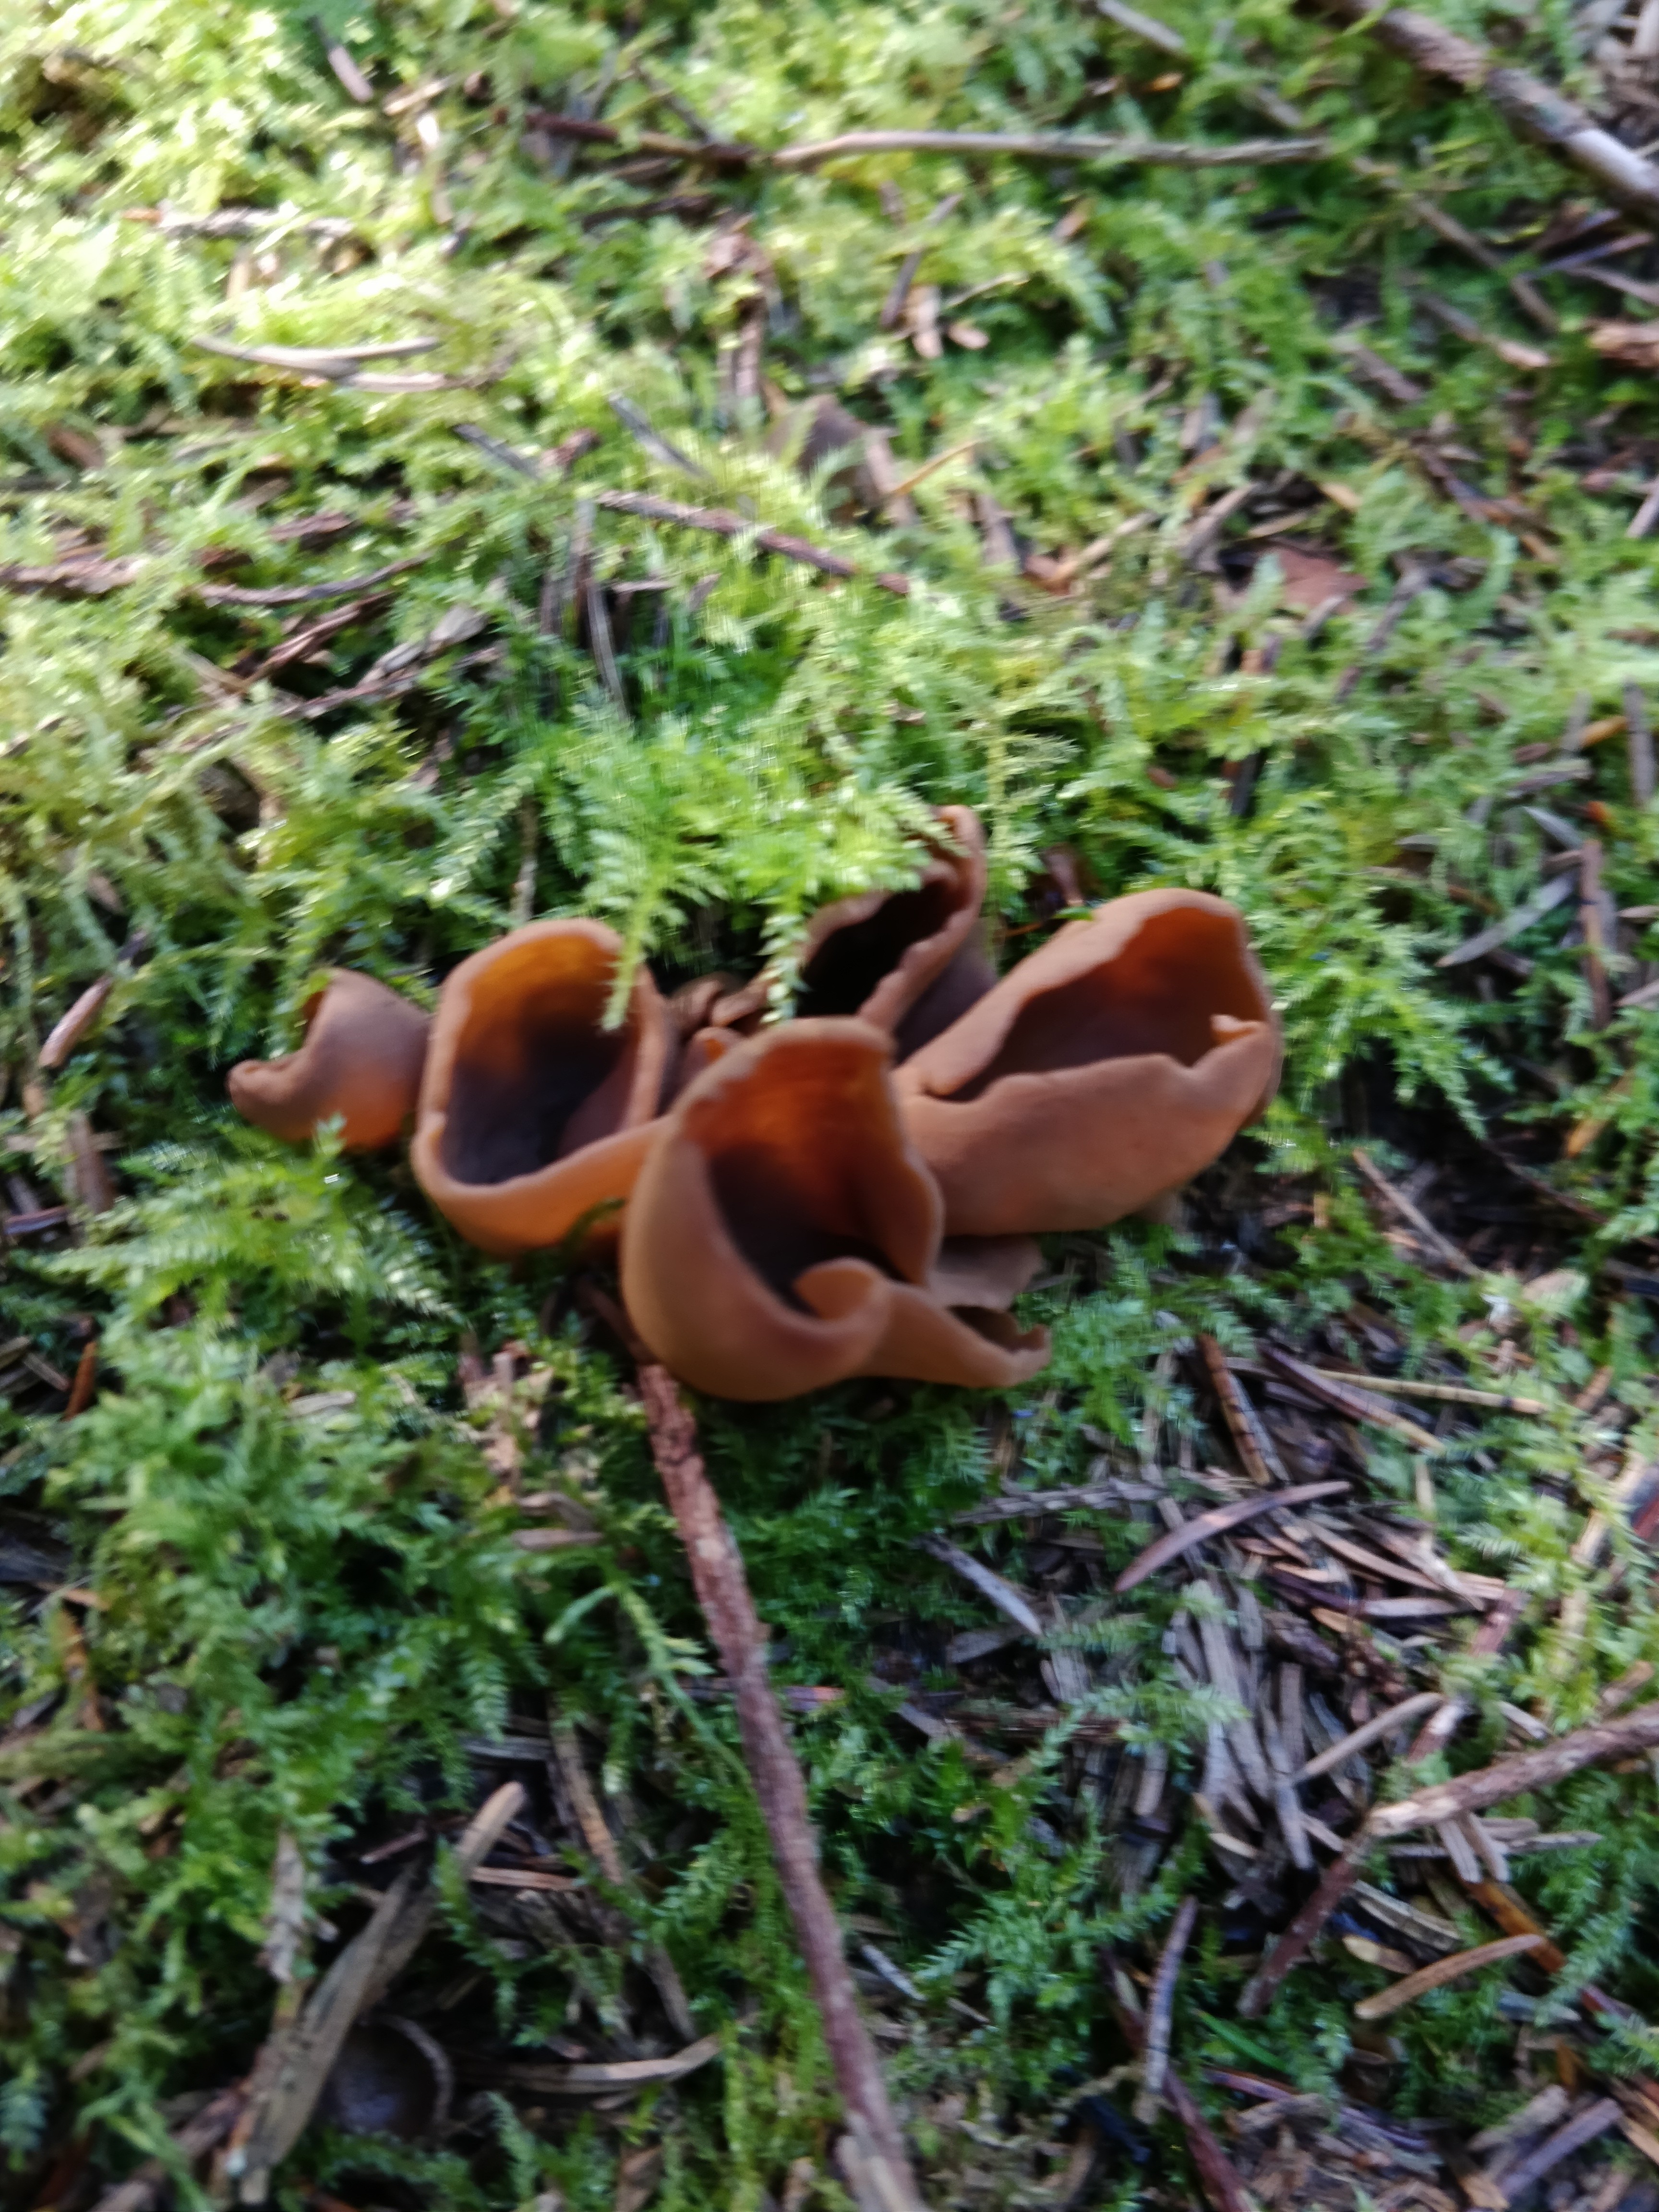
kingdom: Fungi
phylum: Ascomycota
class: Pezizomycetes
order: Pezizales
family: Otideaceae
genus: Otidea
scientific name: Otidea
